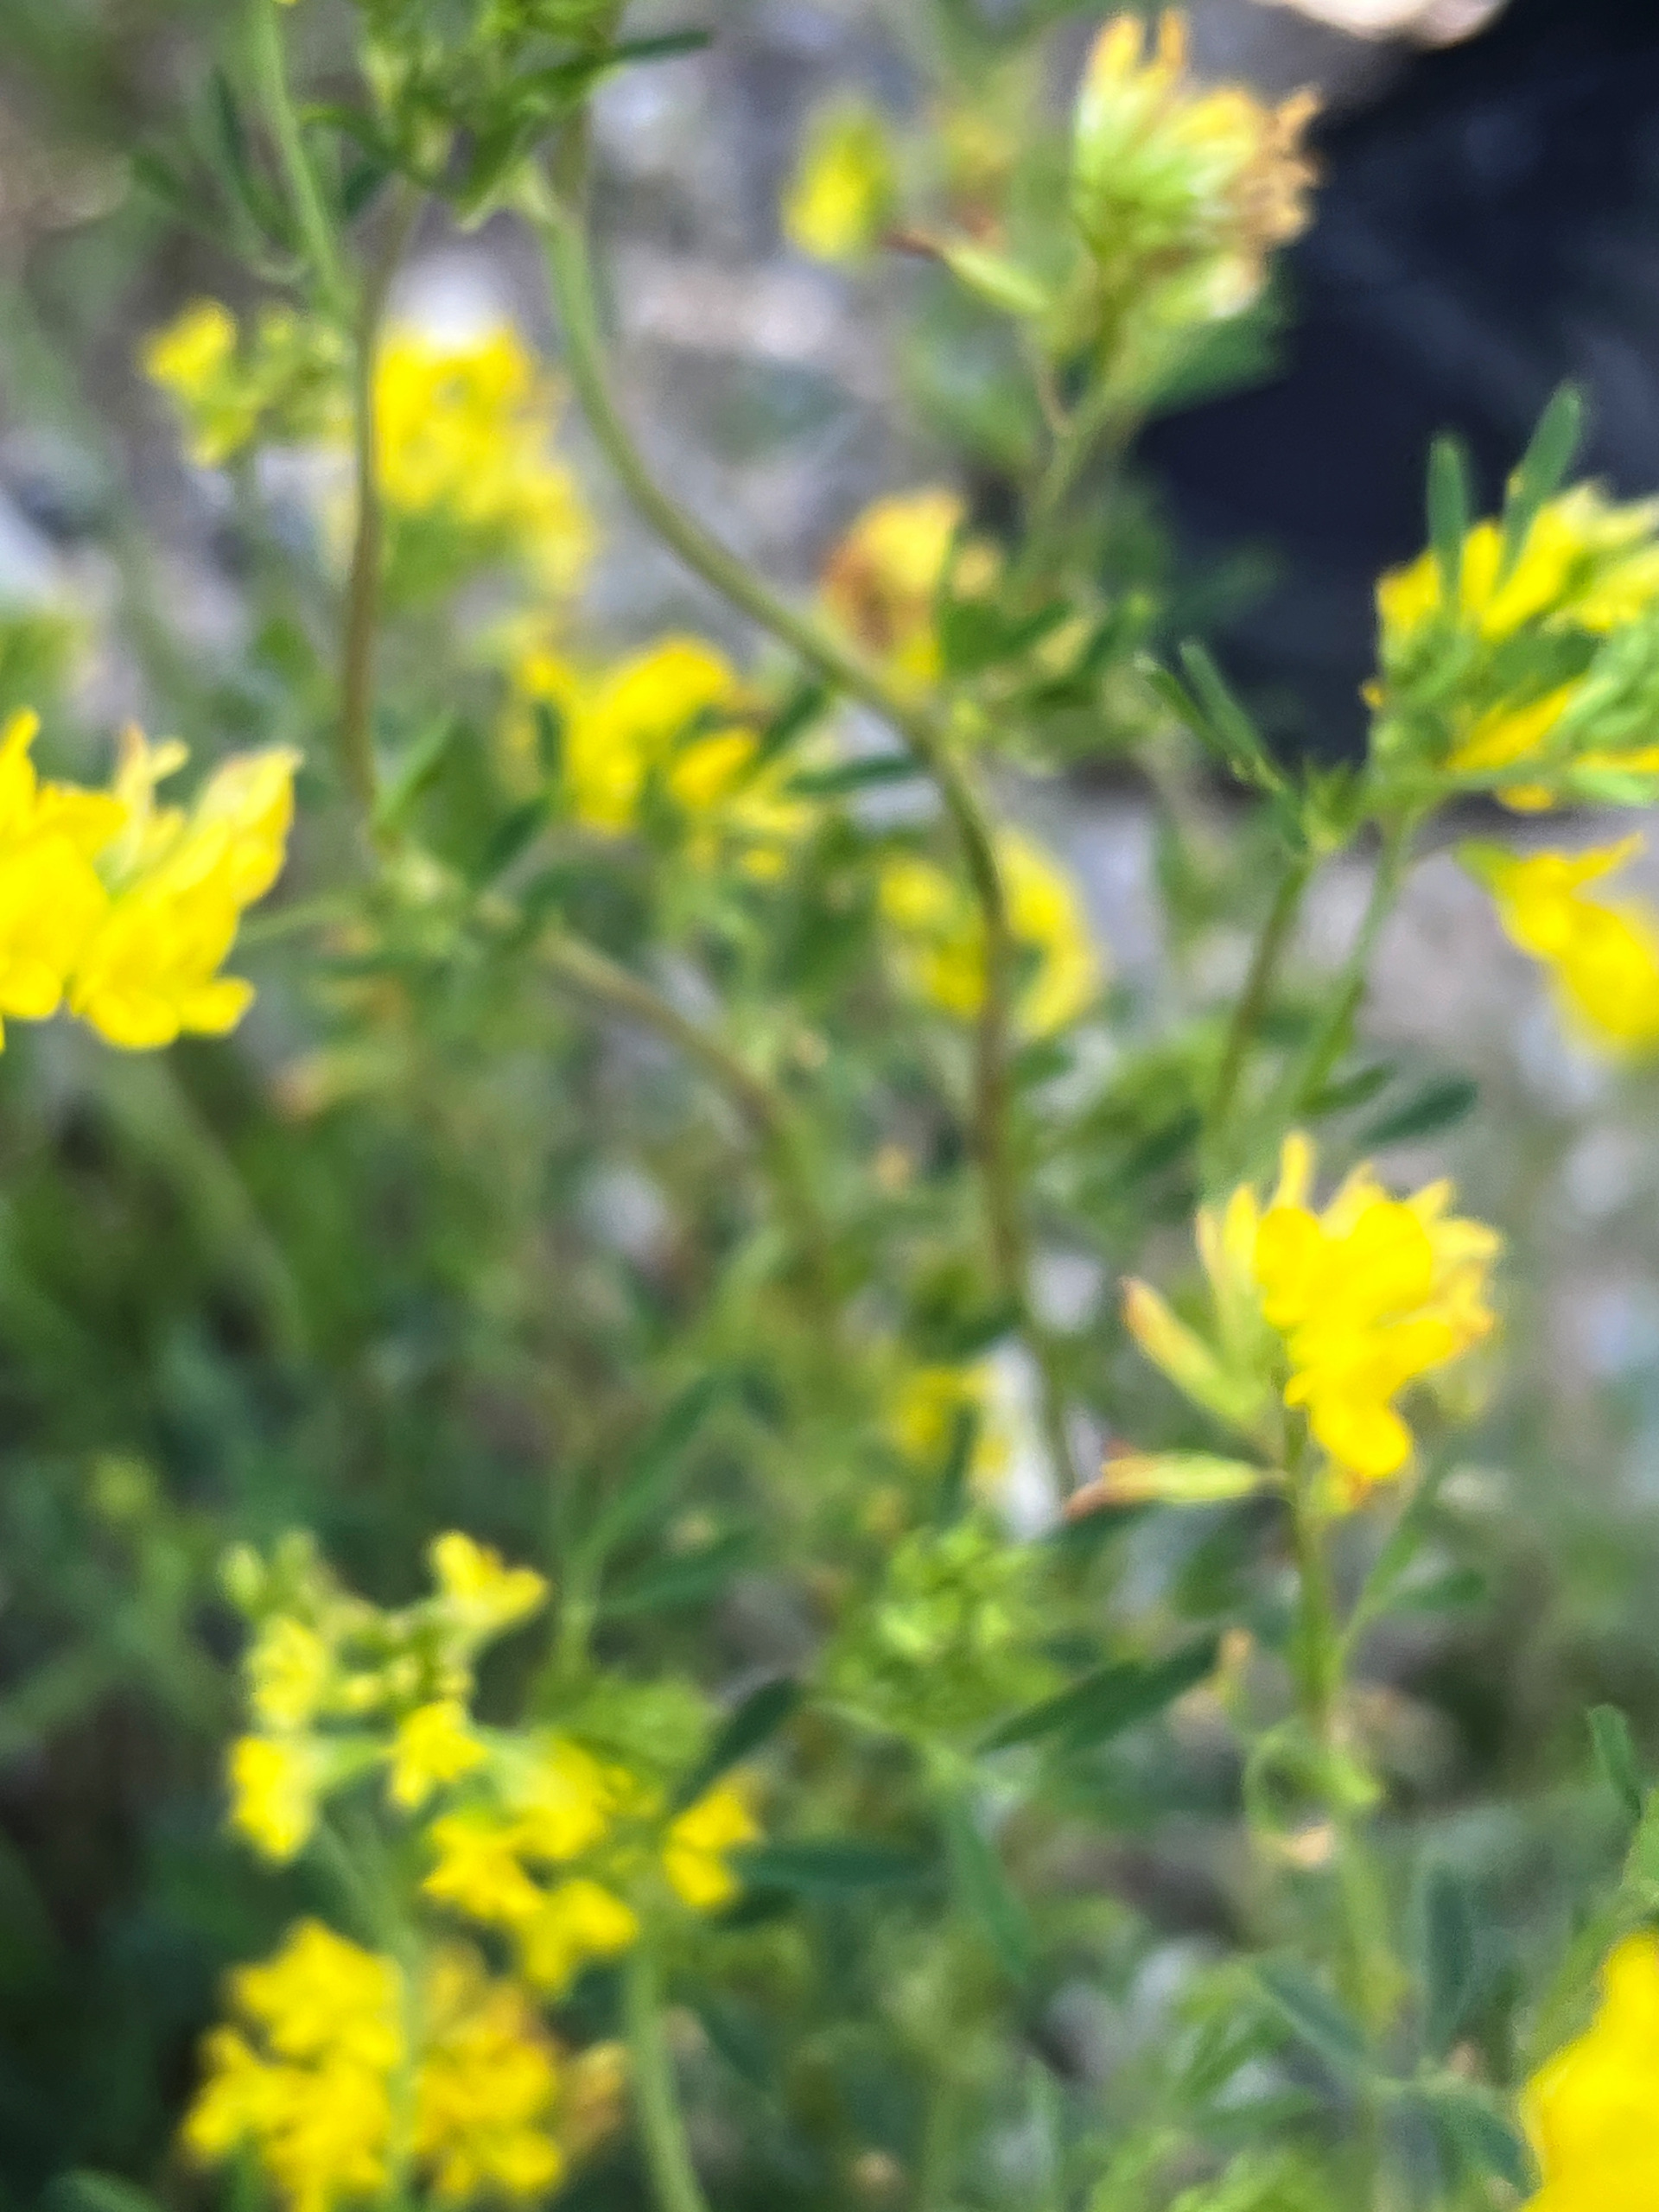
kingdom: Plantae
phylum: Tracheophyta
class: Magnoliopsida
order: Fabales
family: Fabaceae
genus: Medicago
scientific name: Medicago falcata
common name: Segl-sneglebælg
